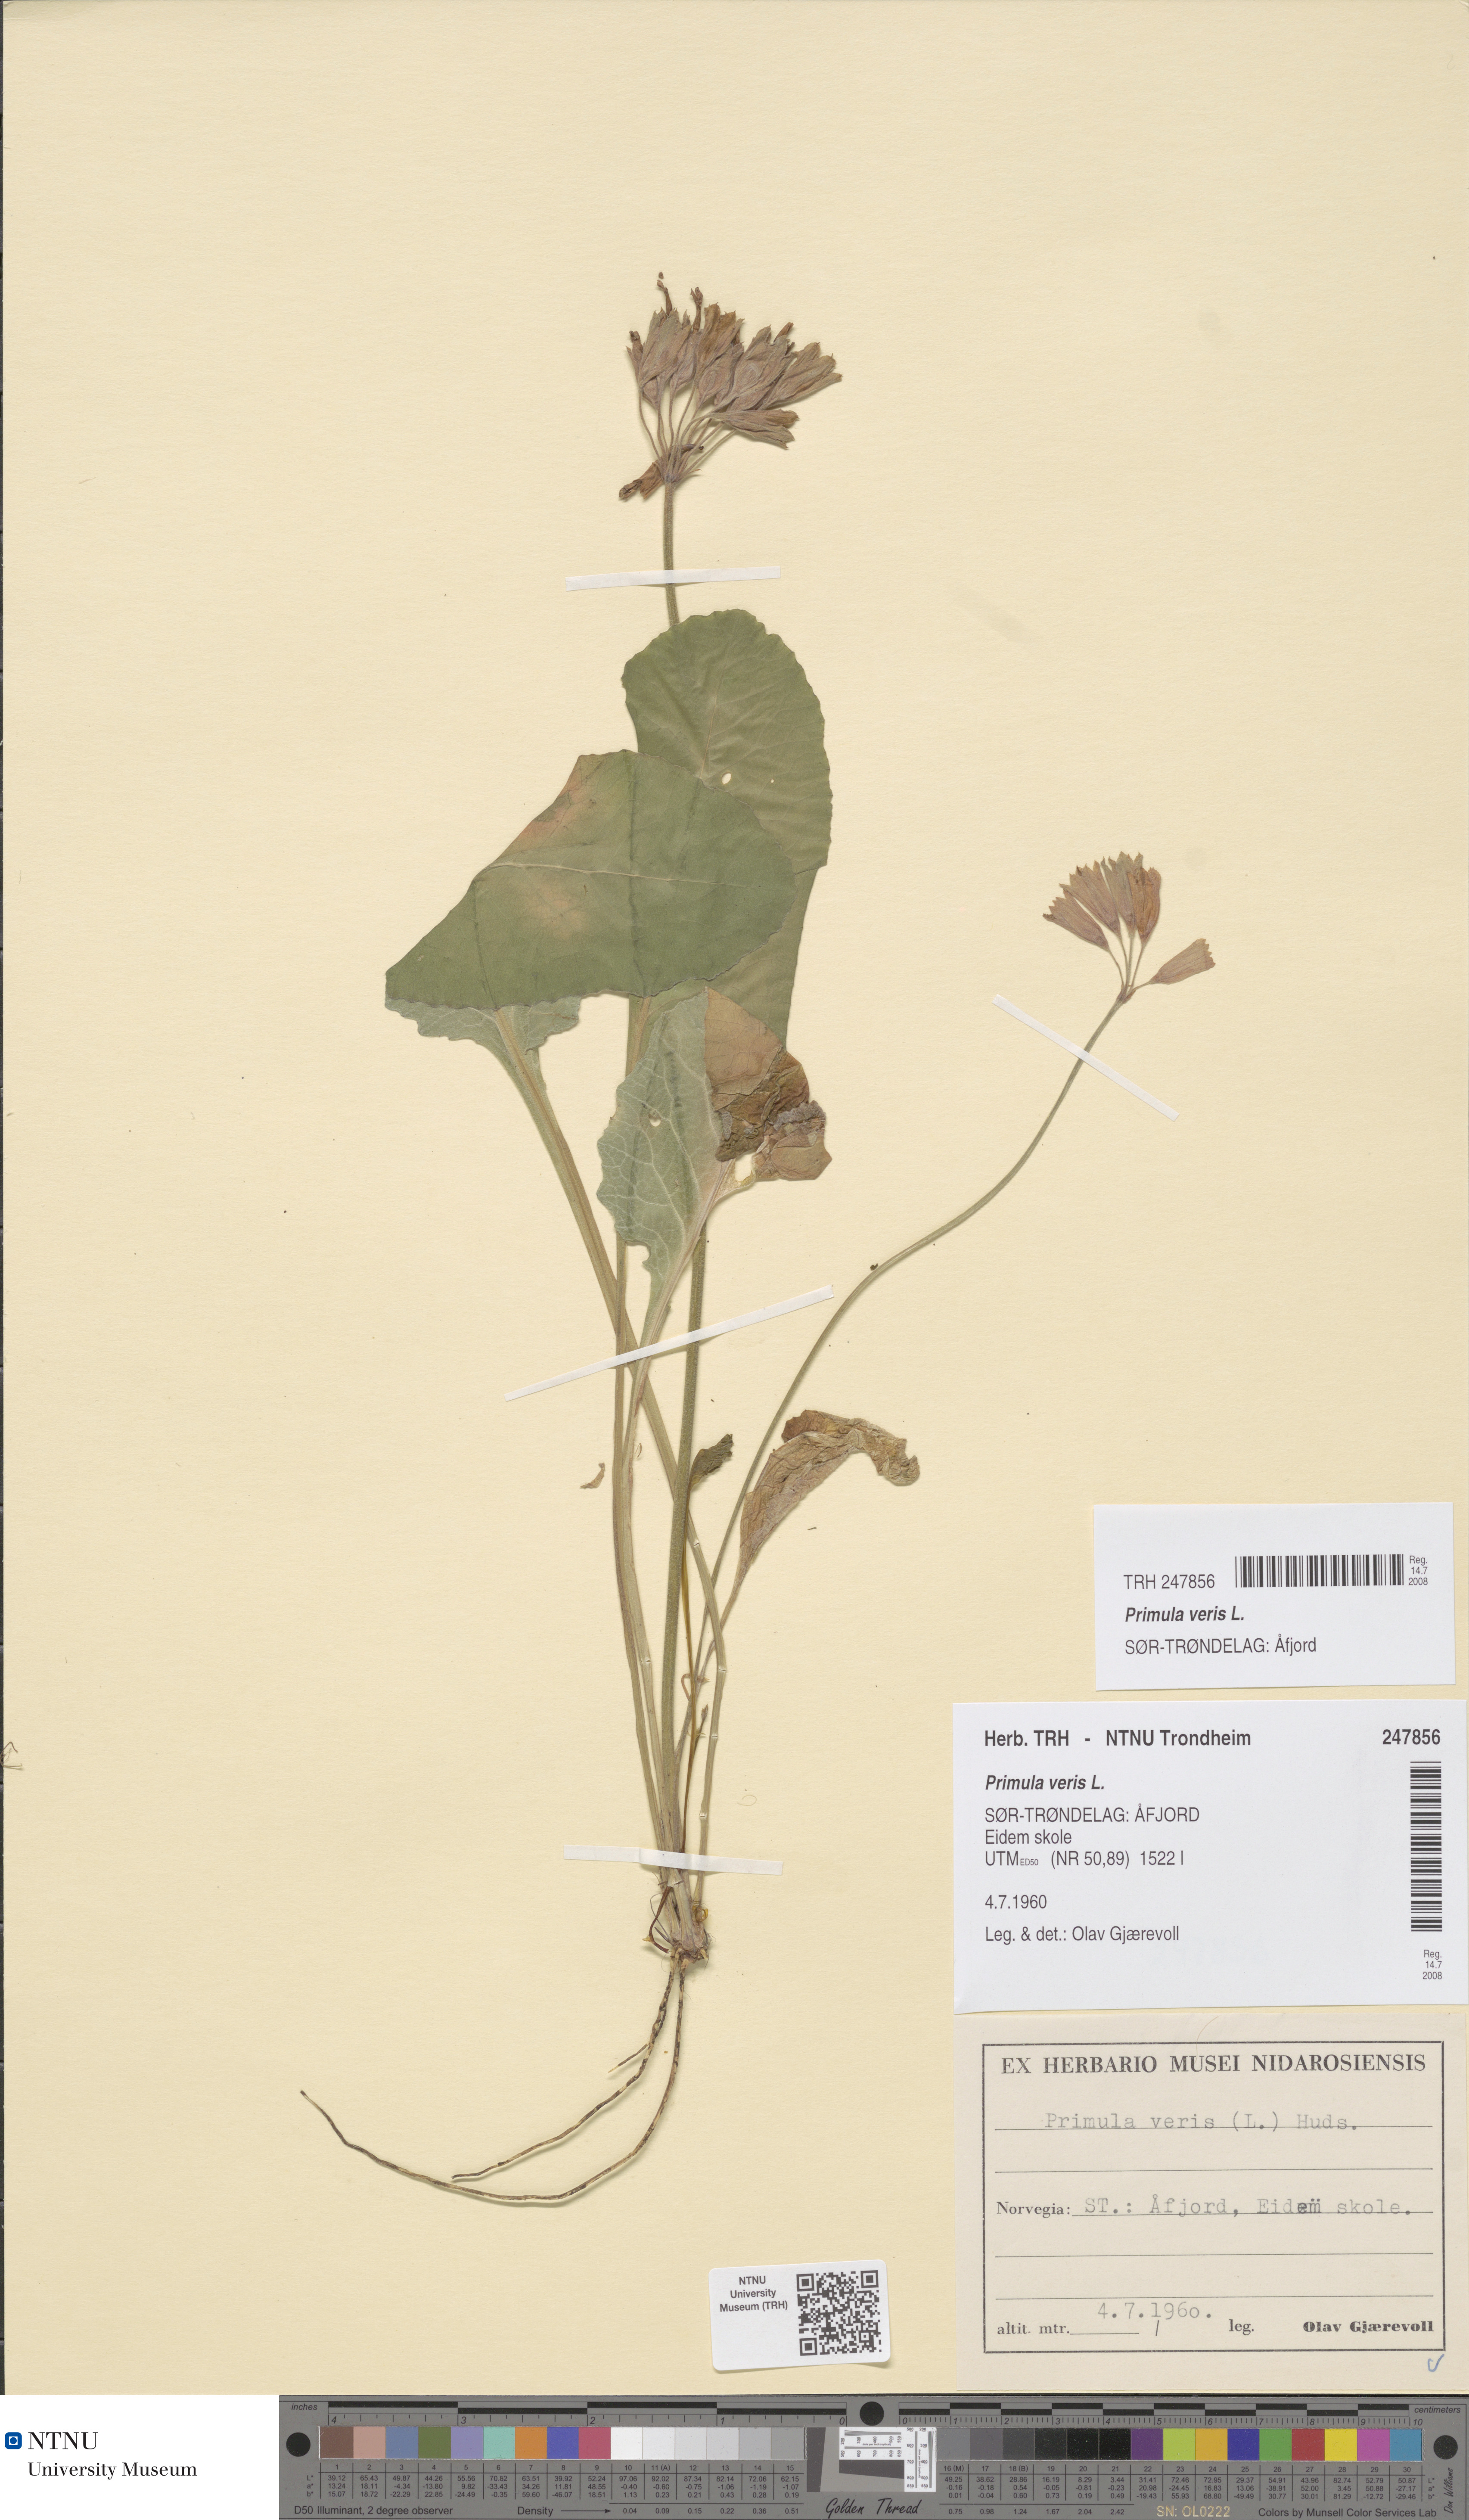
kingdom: Plantae
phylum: Tracheophyta
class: Magnoliopsida
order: Ericales
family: Primulaceae
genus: Primula
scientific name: Primula veris
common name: Cowslip
